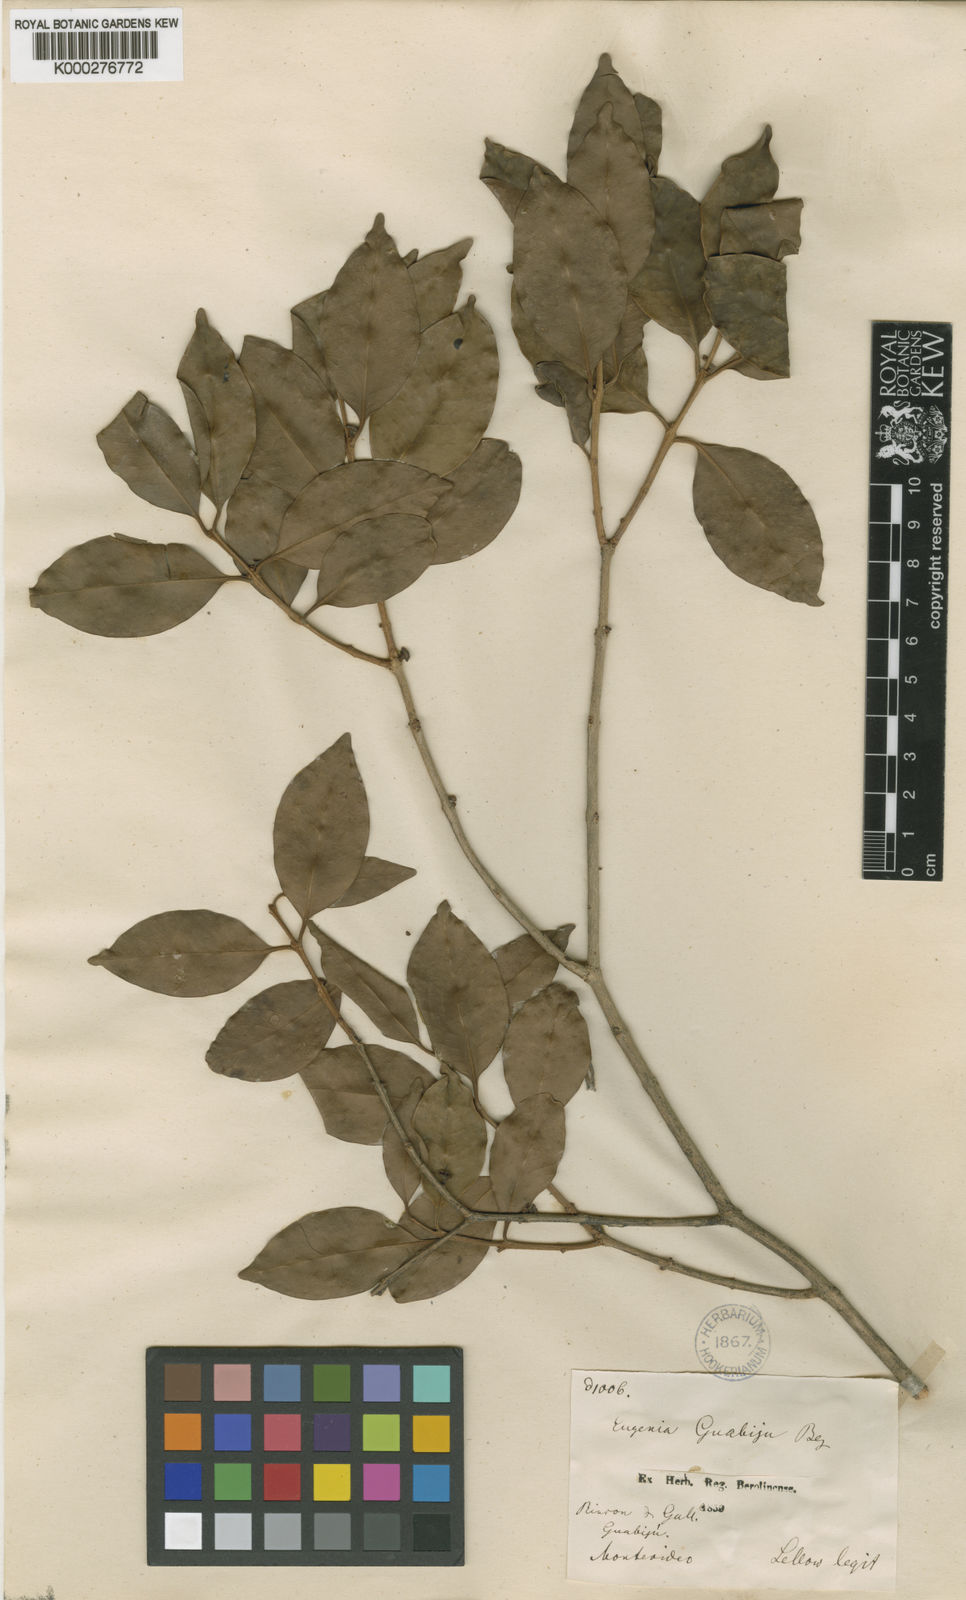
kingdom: Plantae
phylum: Tracheophyta
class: Magnoliopsida
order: Myrtales
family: Myrtaceae
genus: Eugenia
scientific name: Eugenia uruguayensis
